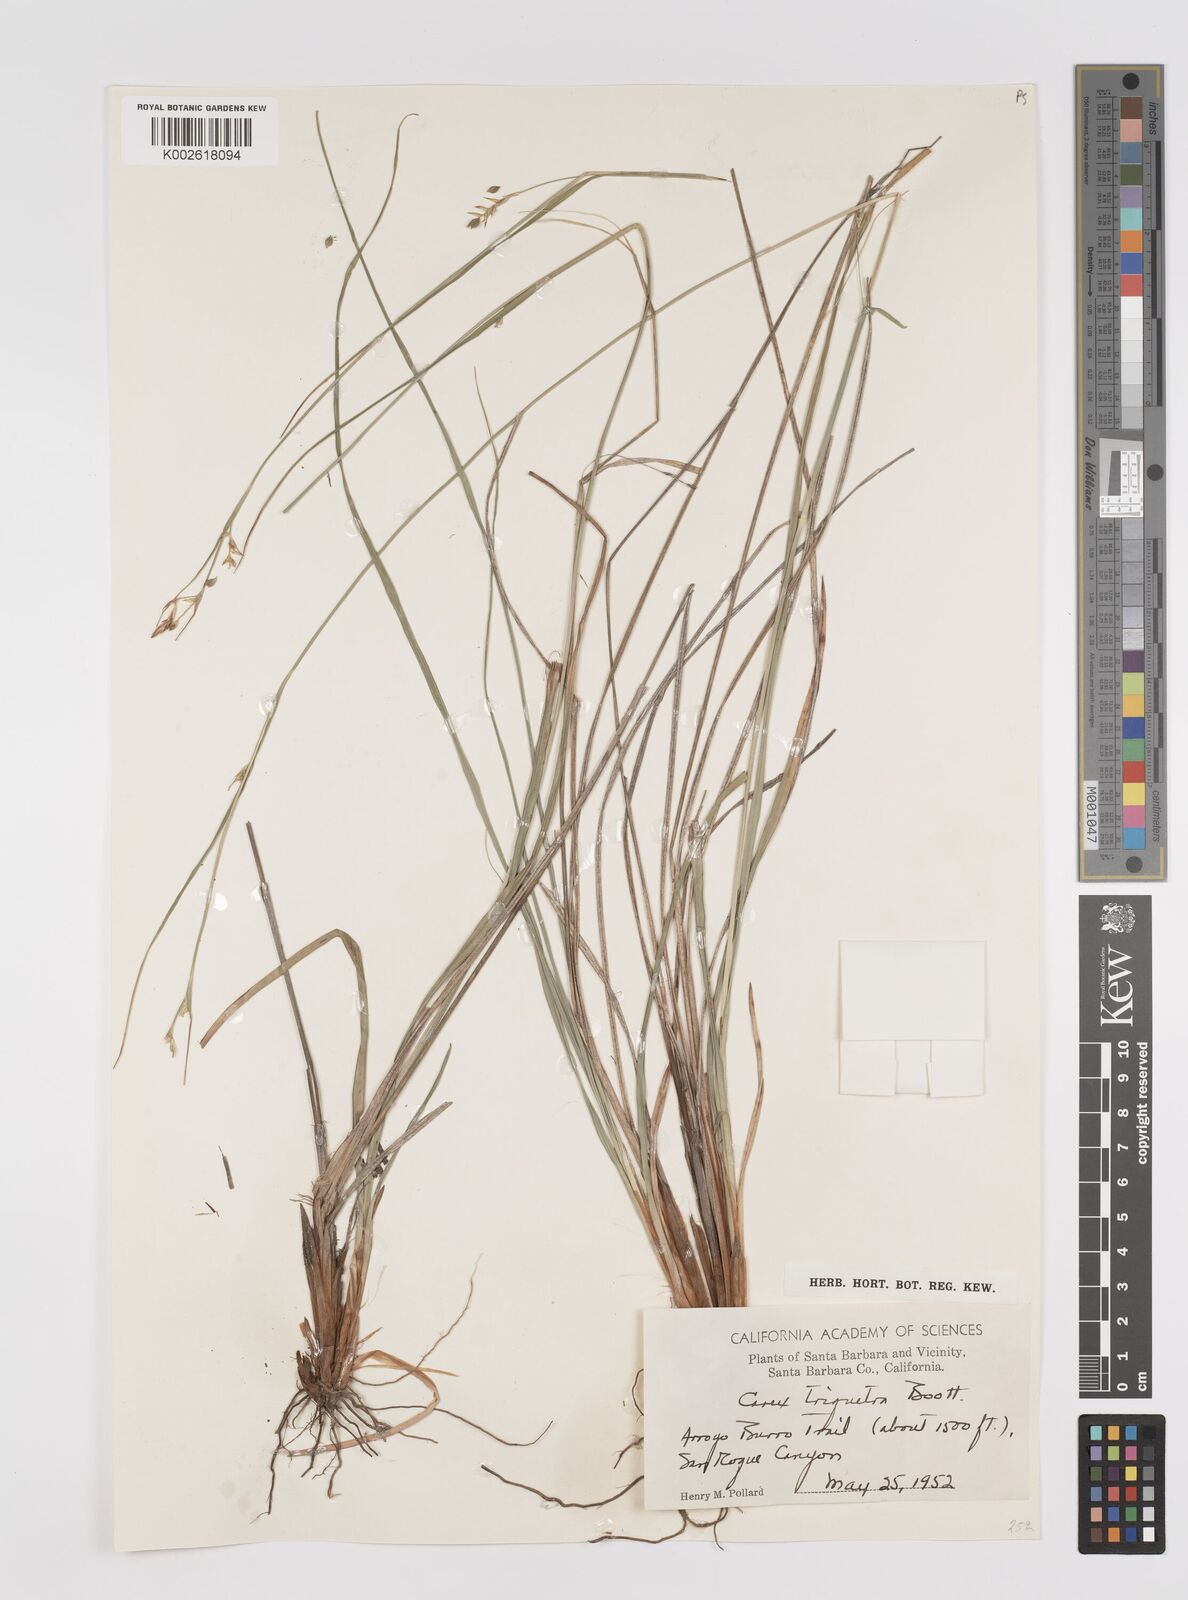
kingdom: Plantae
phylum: Tracheophyta
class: Liliopsida
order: Poales
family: Cyperaceae
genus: Carex
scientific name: Carex triquetra
